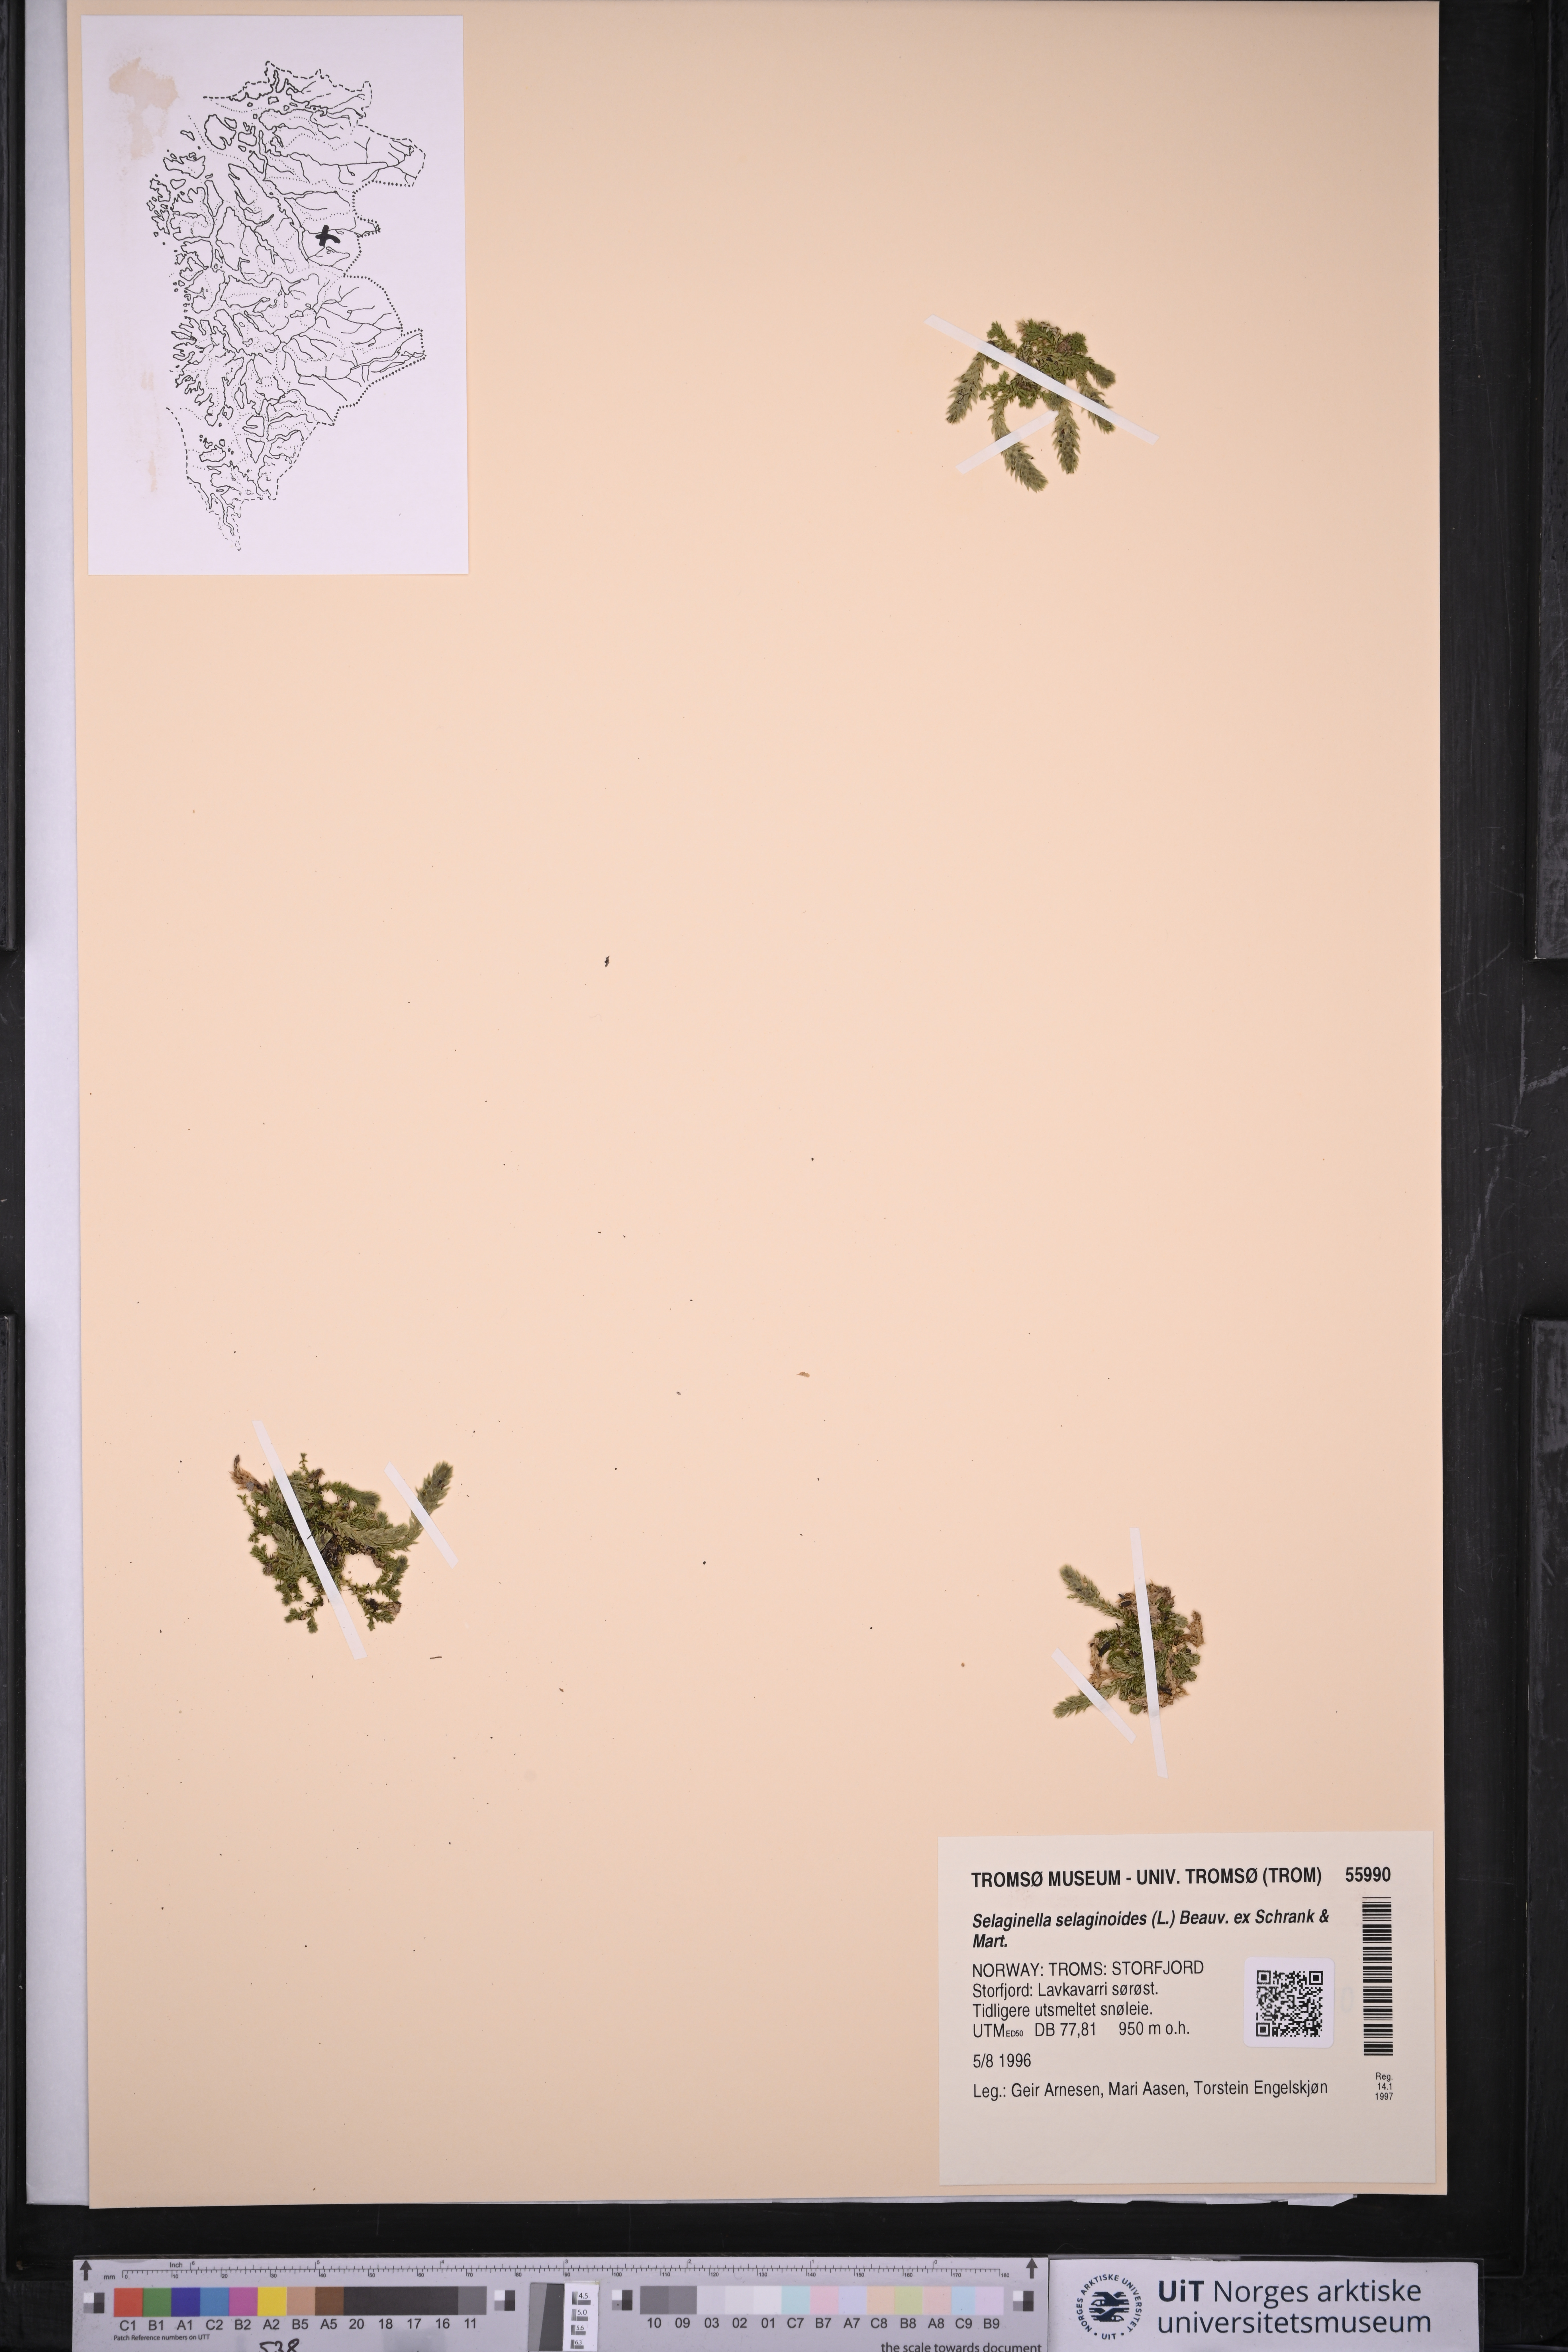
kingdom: Plantae
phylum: Tracheophyta
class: Lycopodiopsida
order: Selaginellales
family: Selaginellaceae
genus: Selaginella
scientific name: Selaginella selaginoides
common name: Prickly mountain-moss
